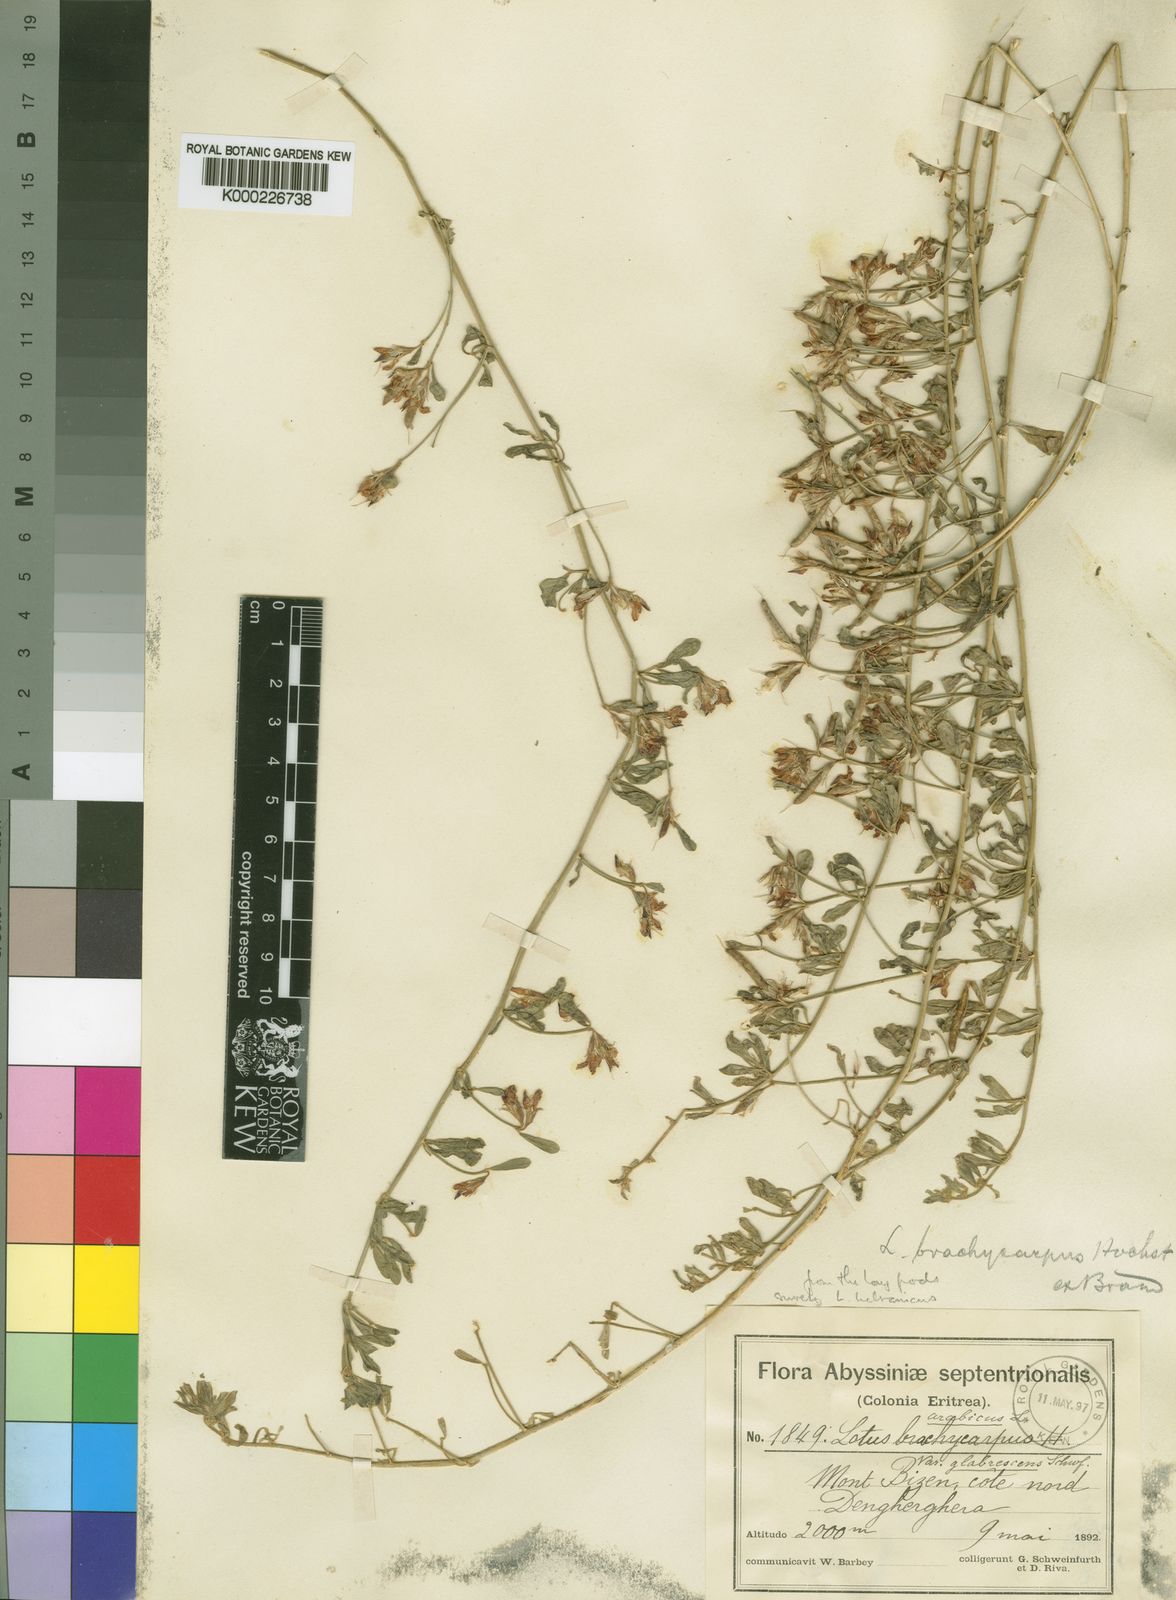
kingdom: Plantae
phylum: Tracheophyta
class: Magnoliopsida
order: Fabales
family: Fabaceae
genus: Lotus
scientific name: Lotus lalambensis
